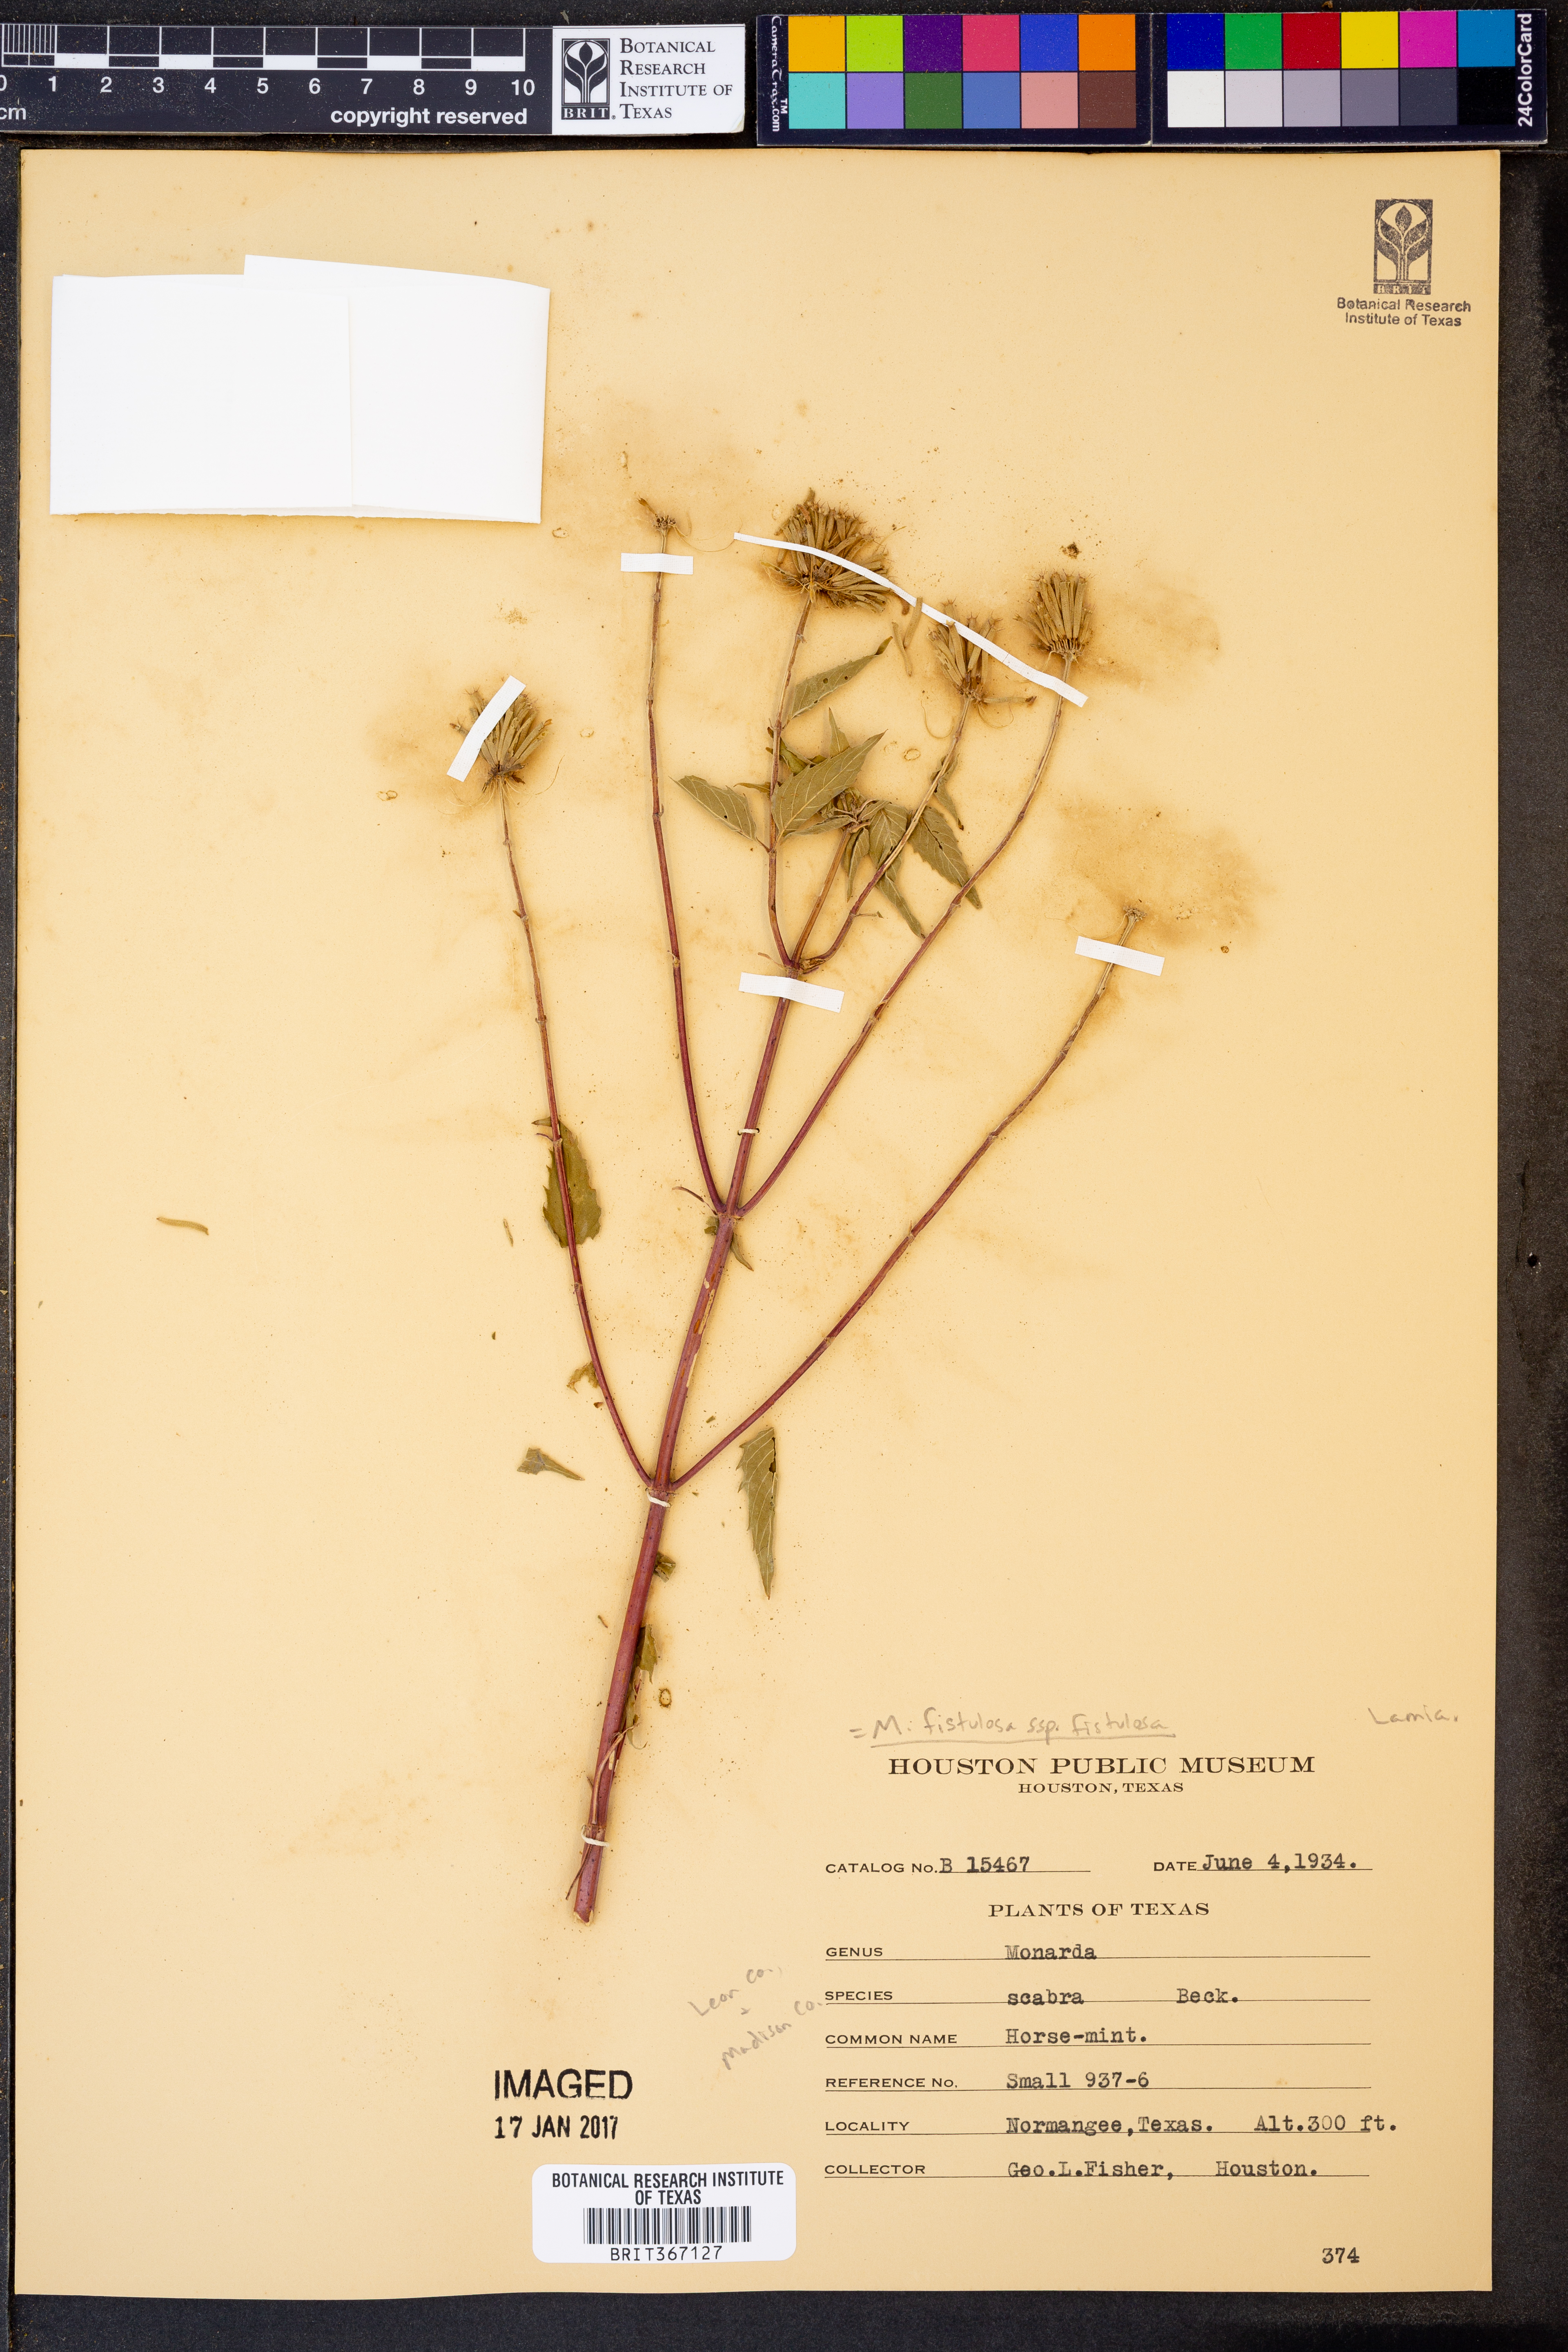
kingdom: Plantae
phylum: Tracheophyta
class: Magnoliopsida
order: Lamiales
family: Lamiaceae
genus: Monarda
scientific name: Monarda fistulosa
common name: Purple beebalm
